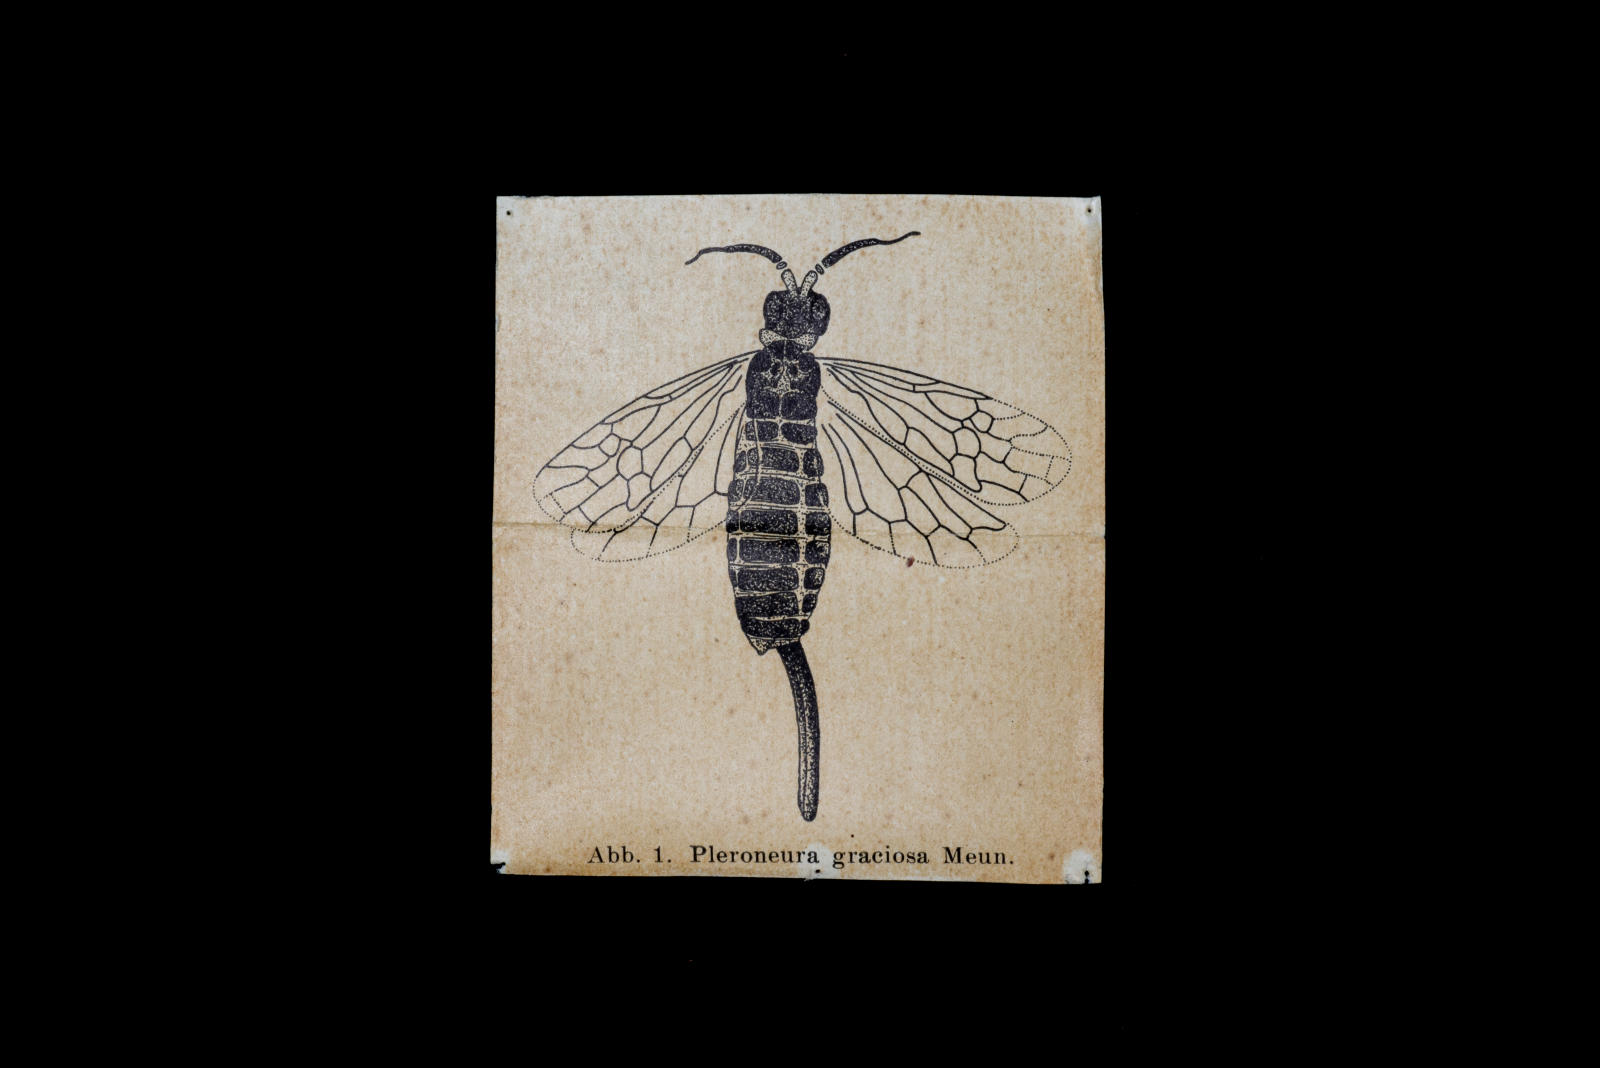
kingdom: Animalia
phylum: Arthropoda
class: Insecta
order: Hymenoptera
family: Xyelidae
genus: Xyela
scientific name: Xyela graciosus
